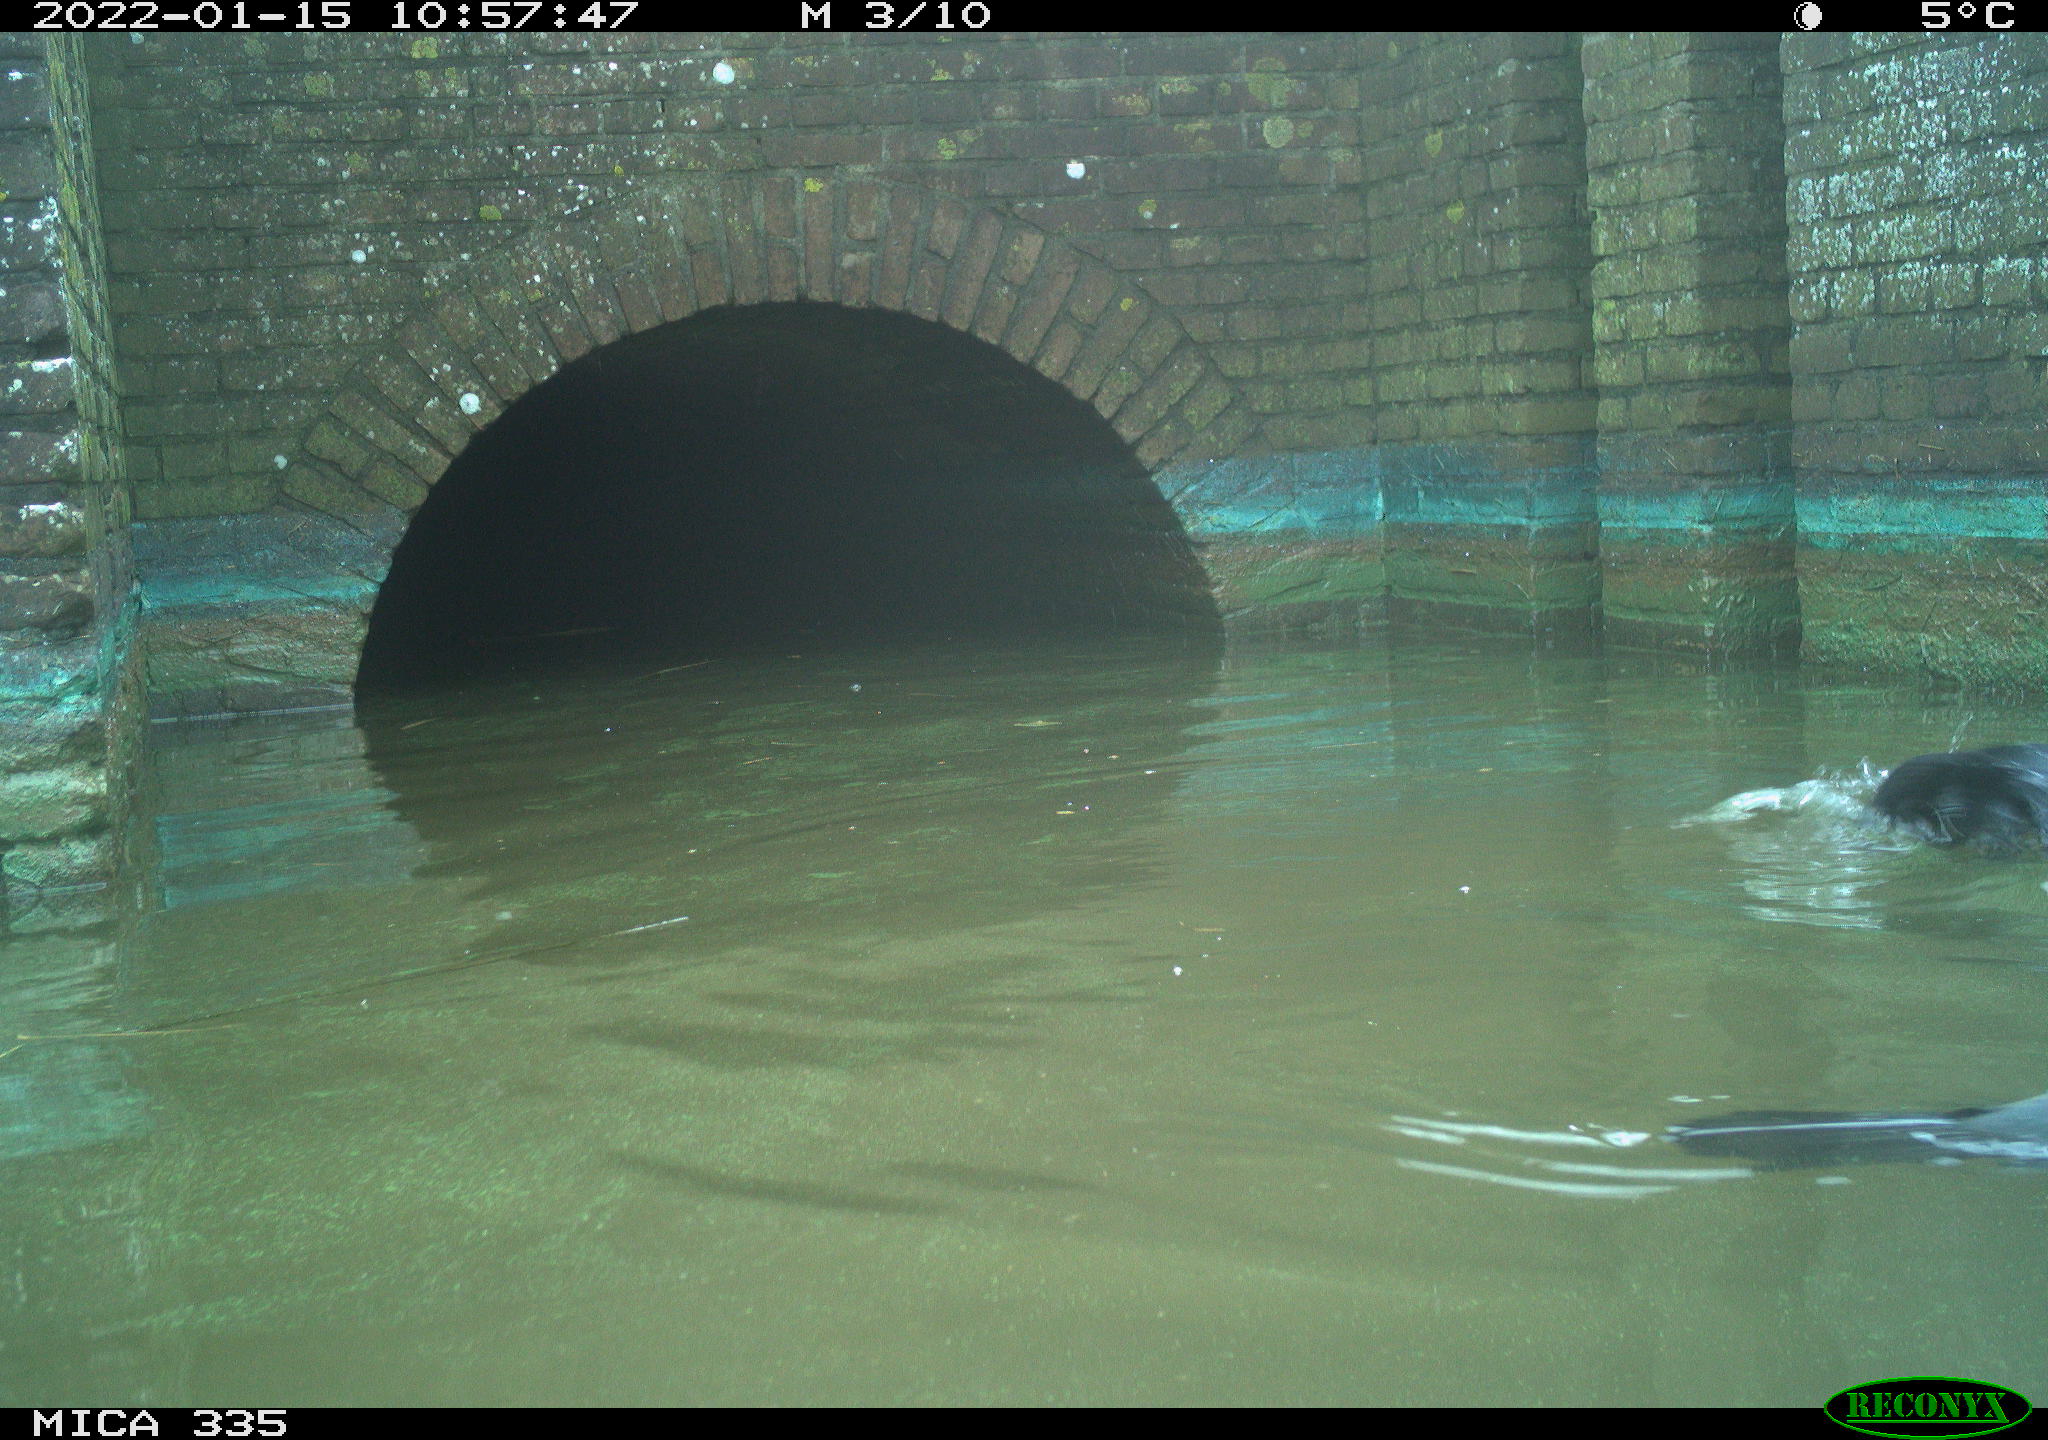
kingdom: Animalia
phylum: Chordata
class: Aves
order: Suliformes
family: Phalacrocoracidae
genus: Phalacrocorax
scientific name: Phalacrocorax carbo
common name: Great cormorant
